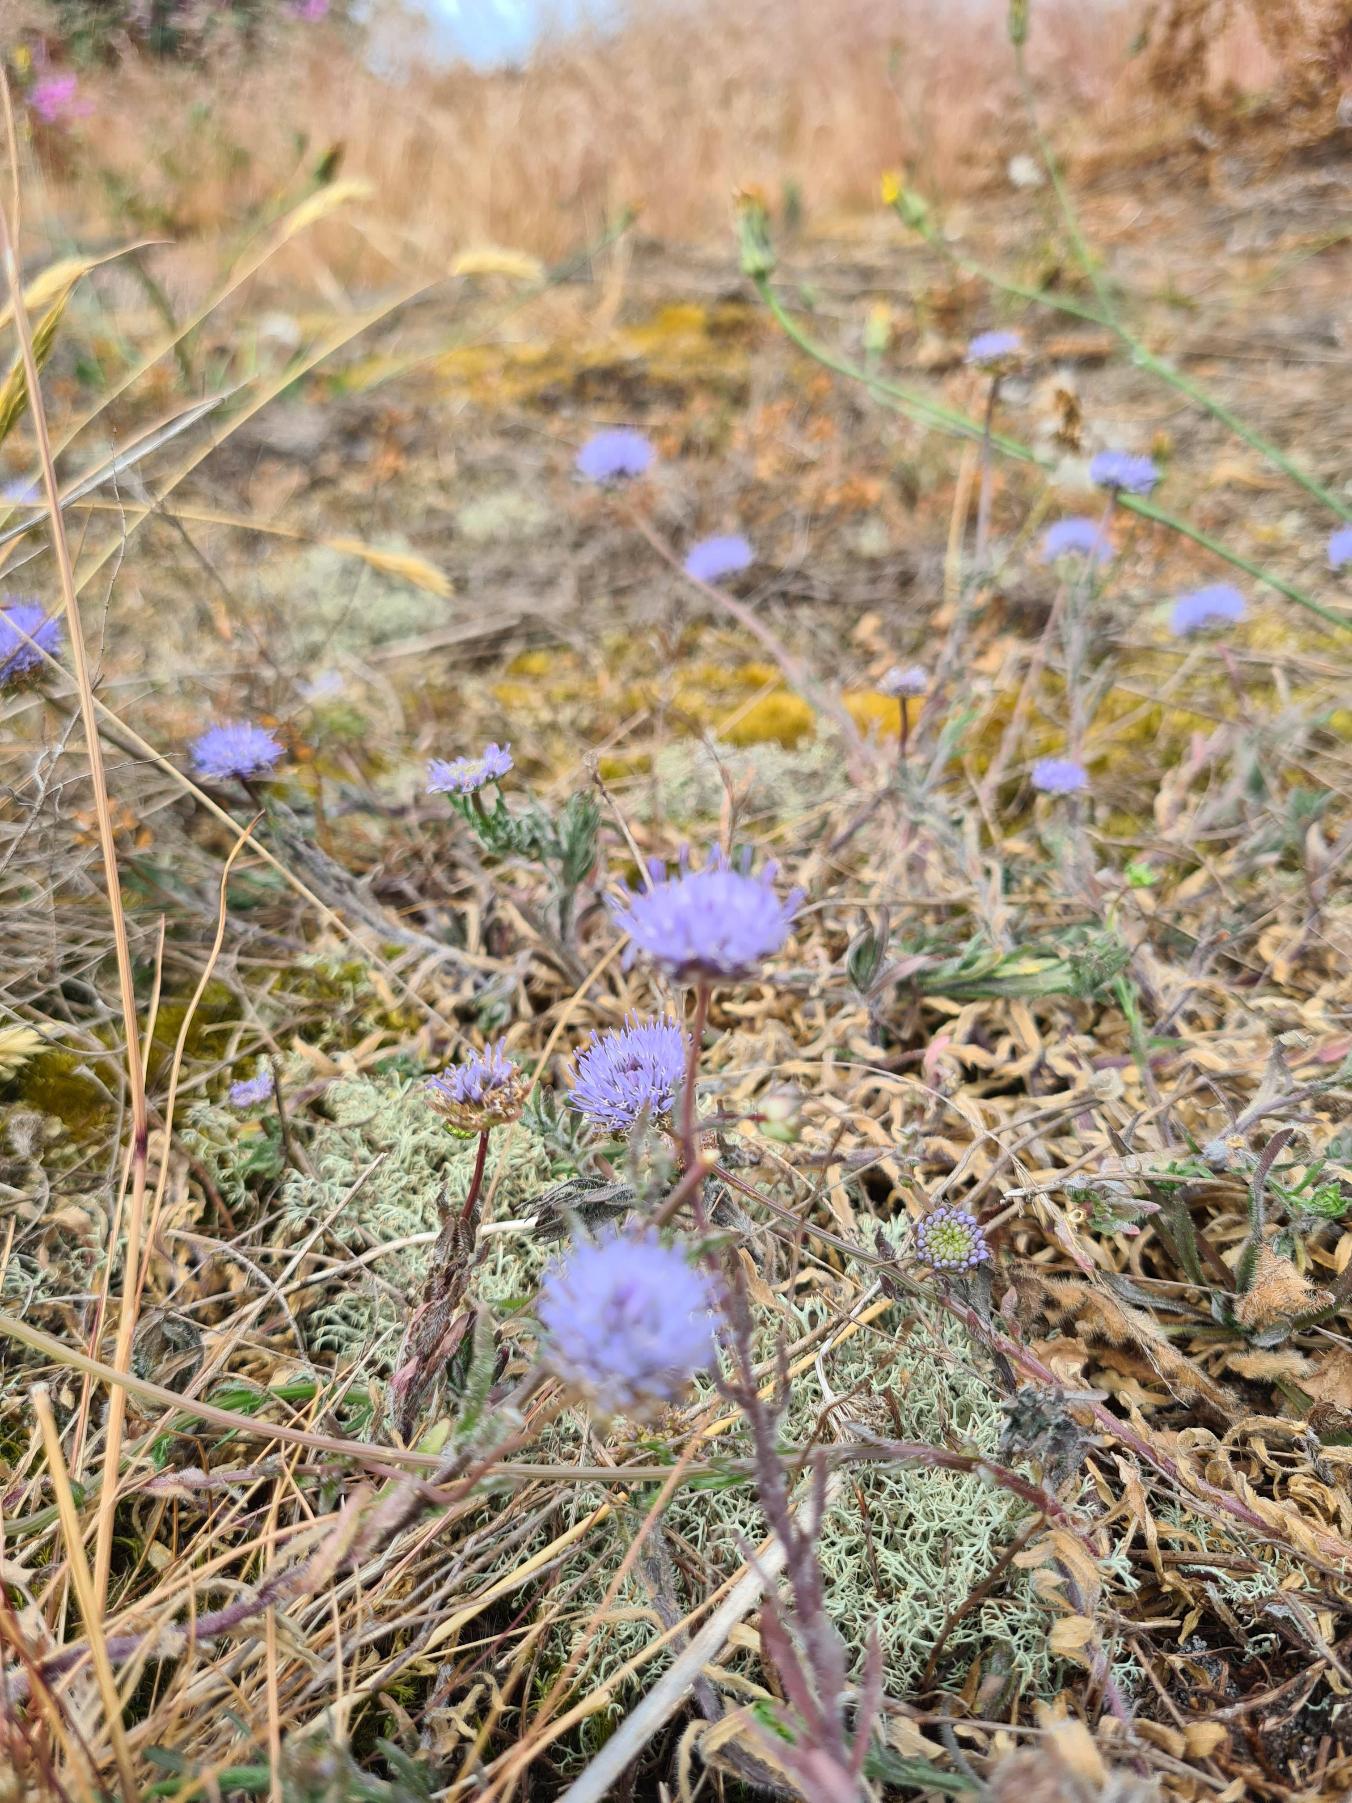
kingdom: Plantae
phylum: Tracheophyta
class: Magnoliopsida
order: Asterales
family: Campanulaceae
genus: Jasione
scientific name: Jasione montana
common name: Blåmunke
